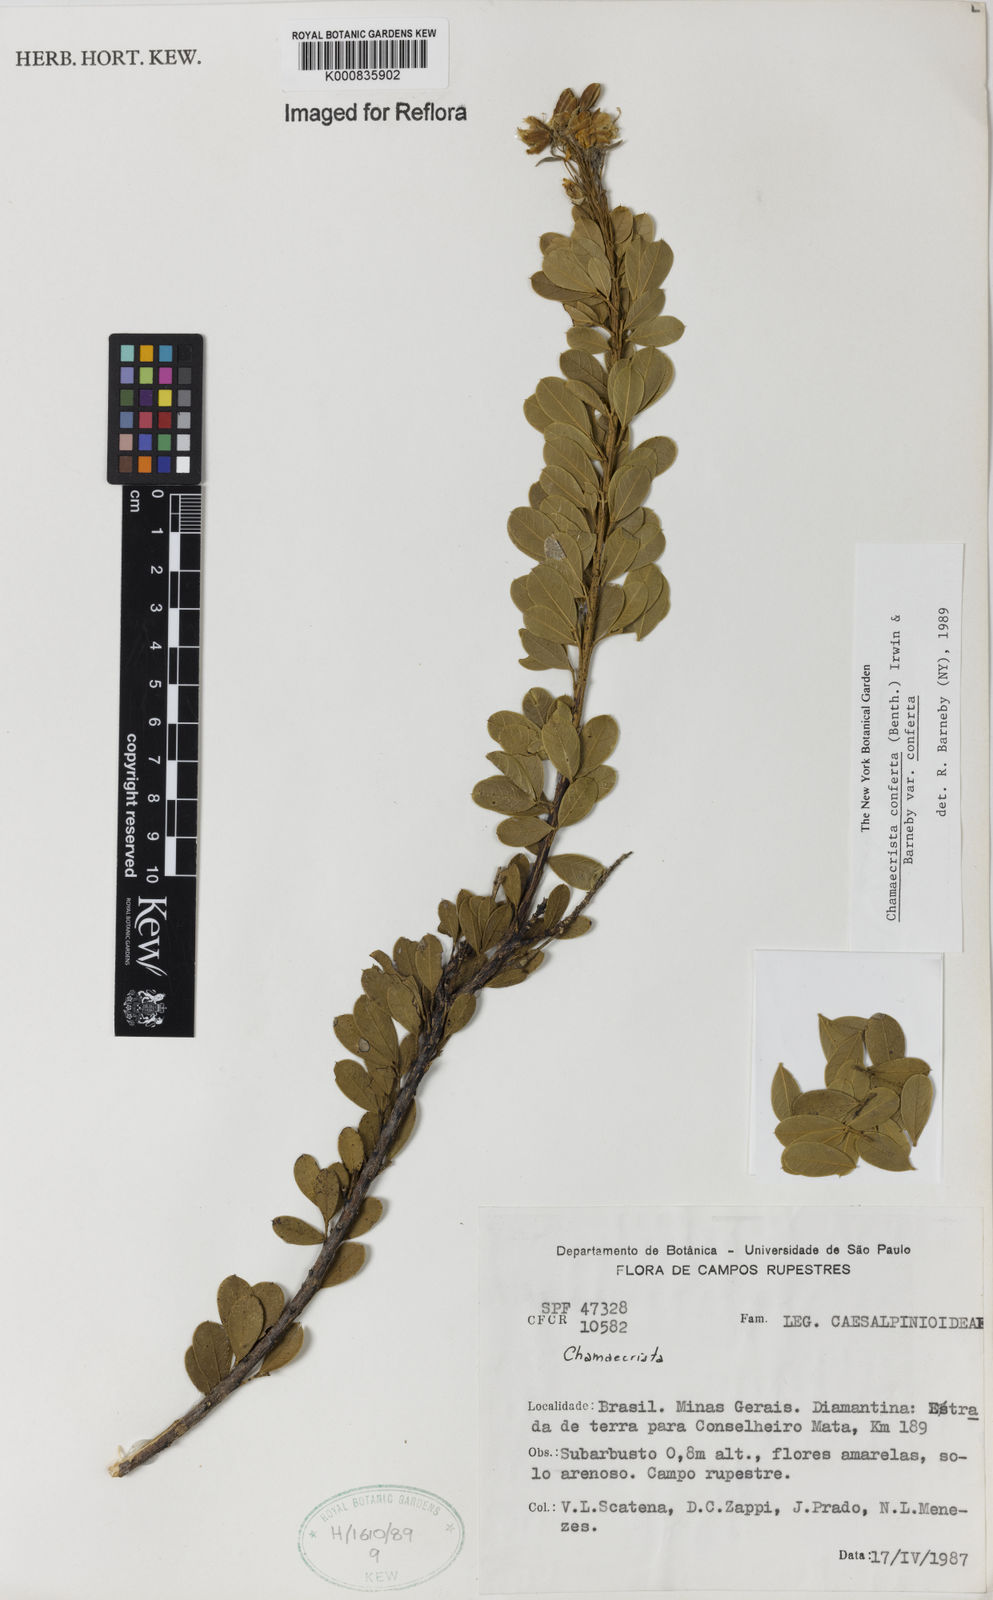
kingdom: Plantae
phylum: Tracheophyta
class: Magnoliopsida
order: Fabales
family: Fabaceae
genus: Chamaecrista
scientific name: Chamaecrista conferta
